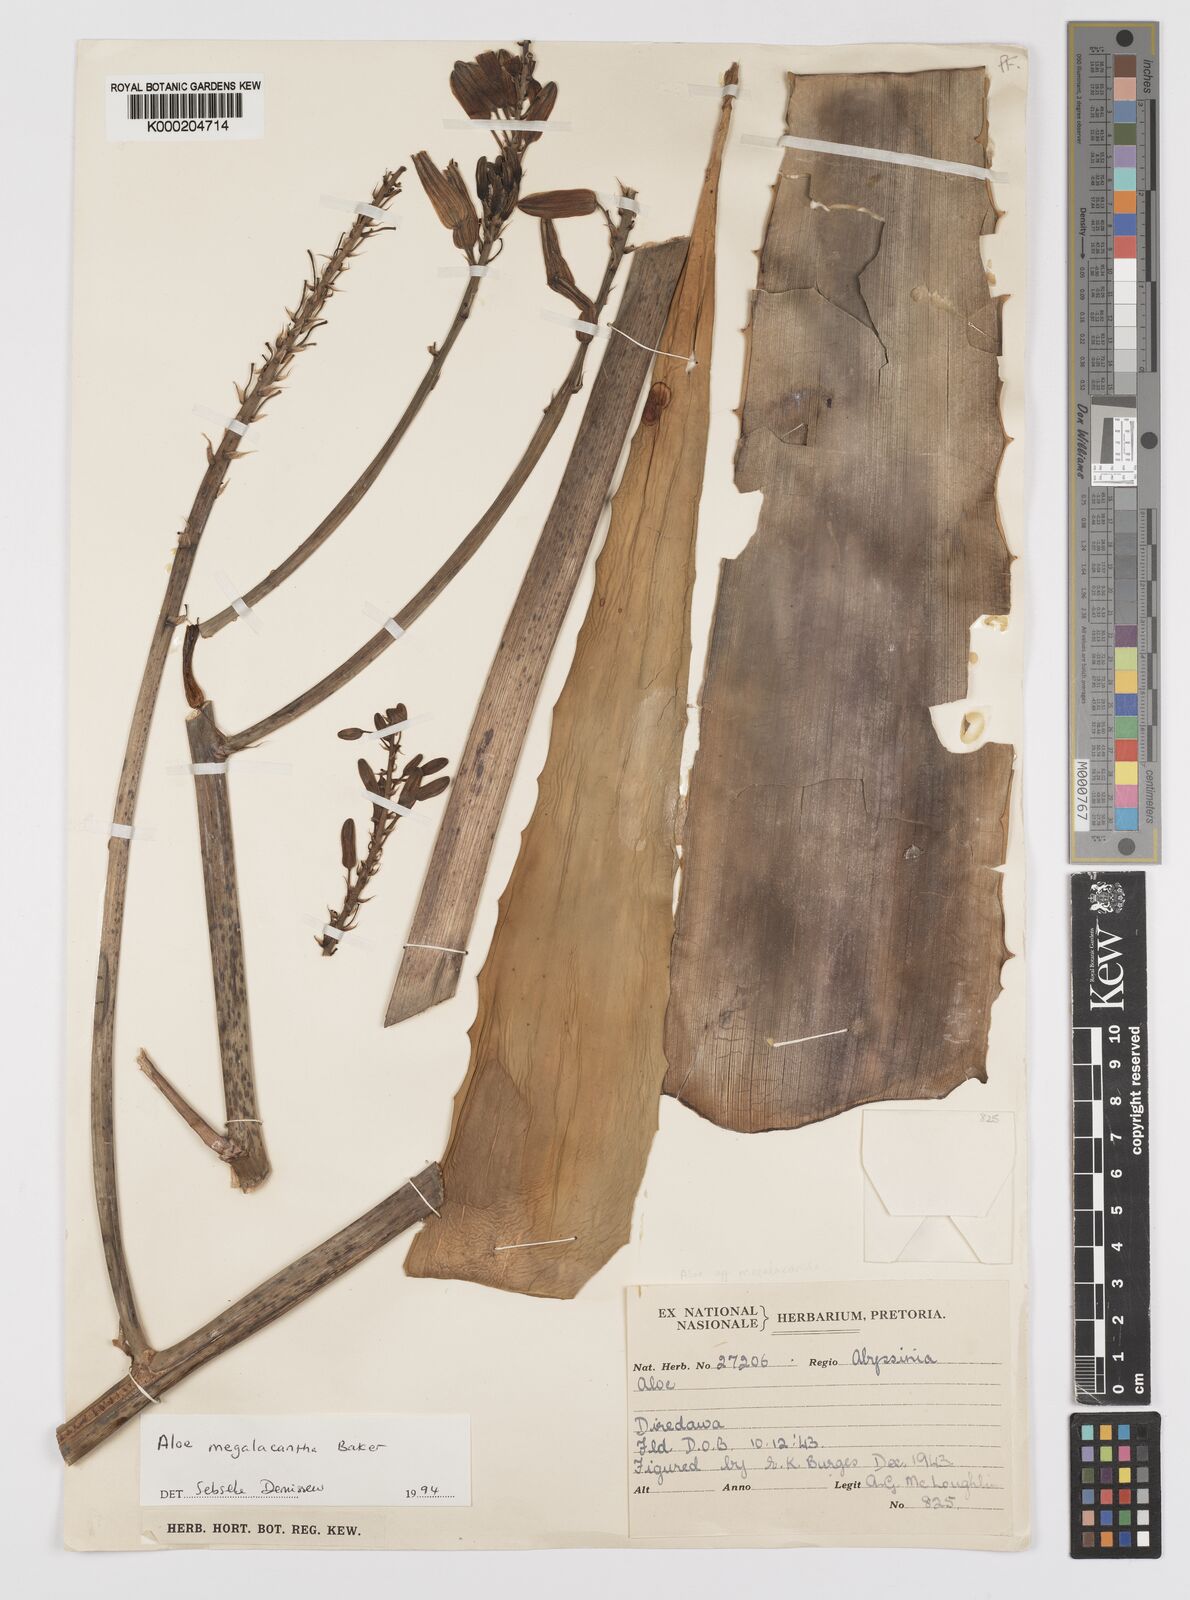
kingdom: Plantae
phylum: Tracheophyta
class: Liliopsida
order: Asparagales
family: Asphodelaceae
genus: Aloe
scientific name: Aloe megalacantha
